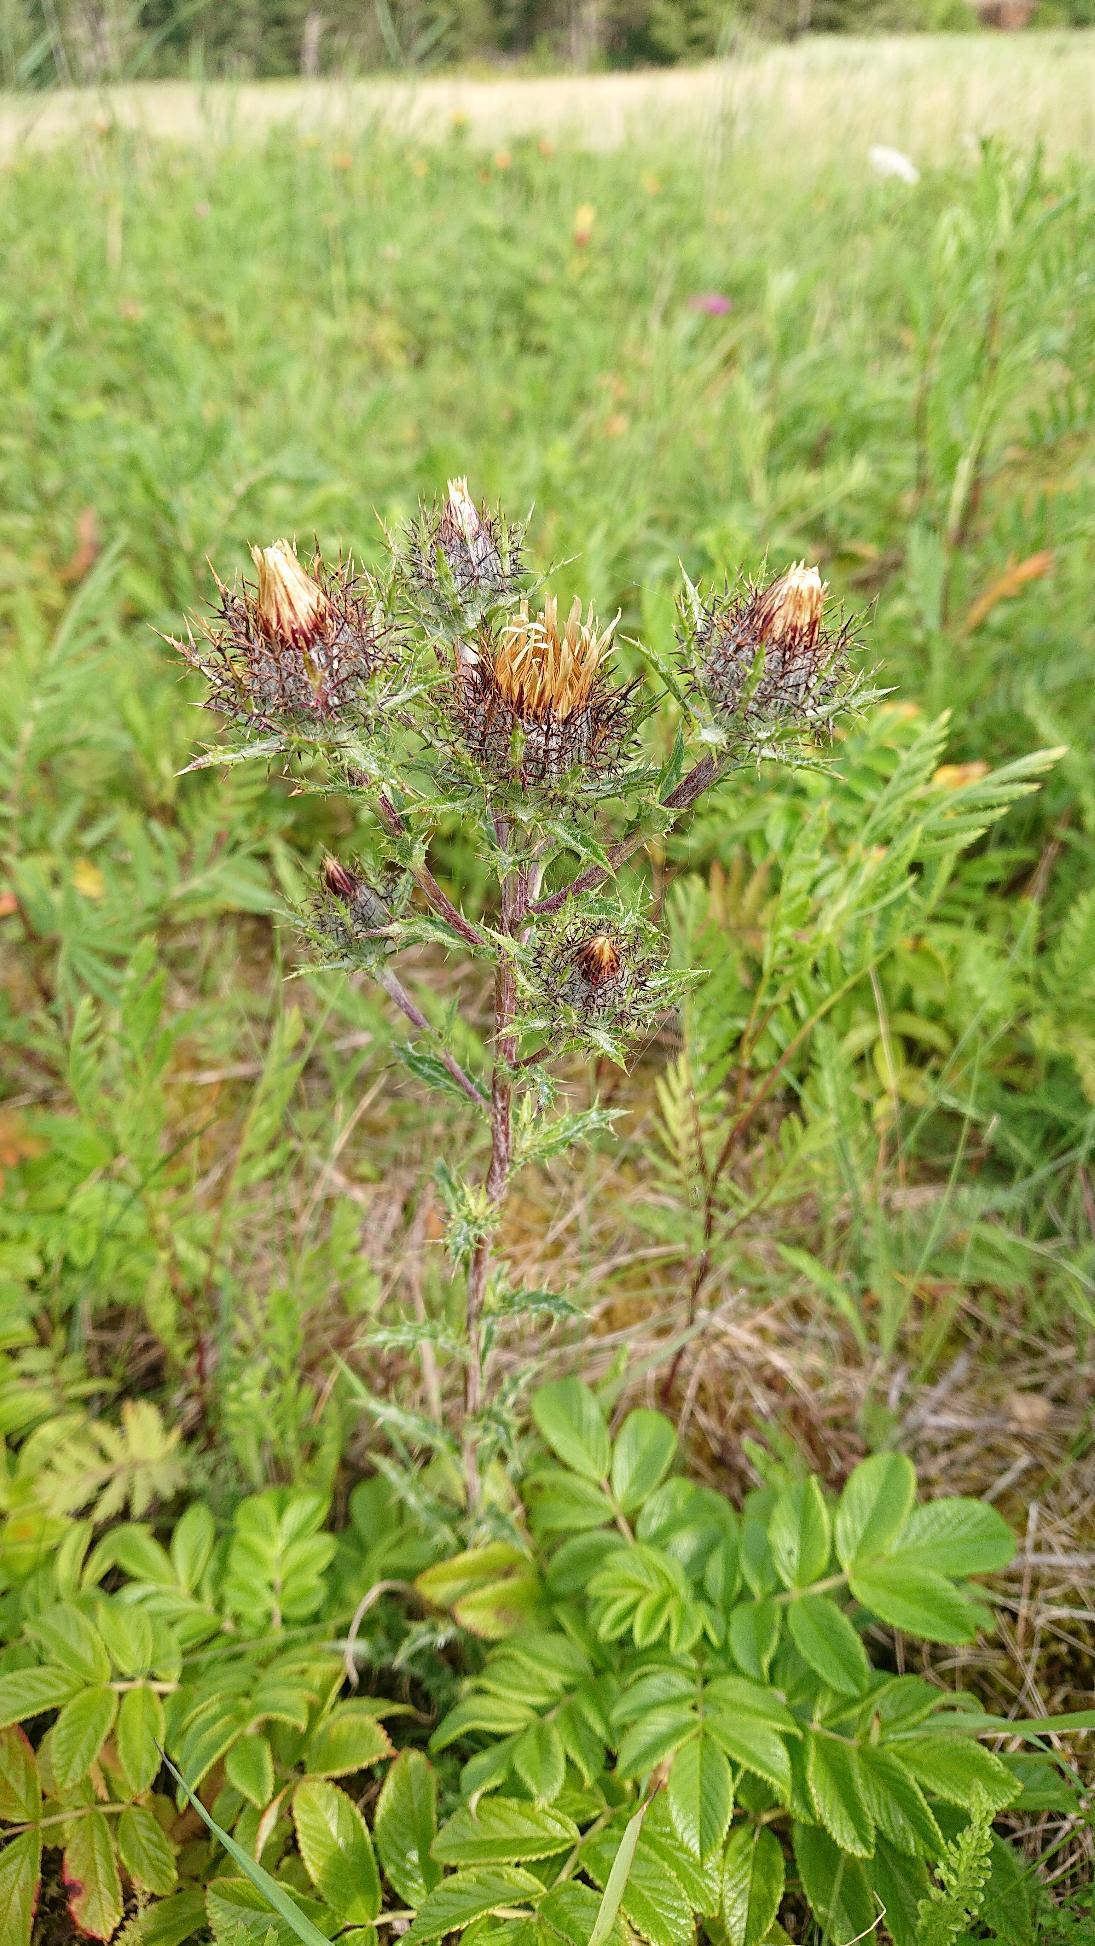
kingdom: Plantae
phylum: Tracheophyta
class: Magnoliopsida
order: Asterales
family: Asteraceae
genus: Carlina
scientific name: Carlina vulgaris
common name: Bakketidsel
